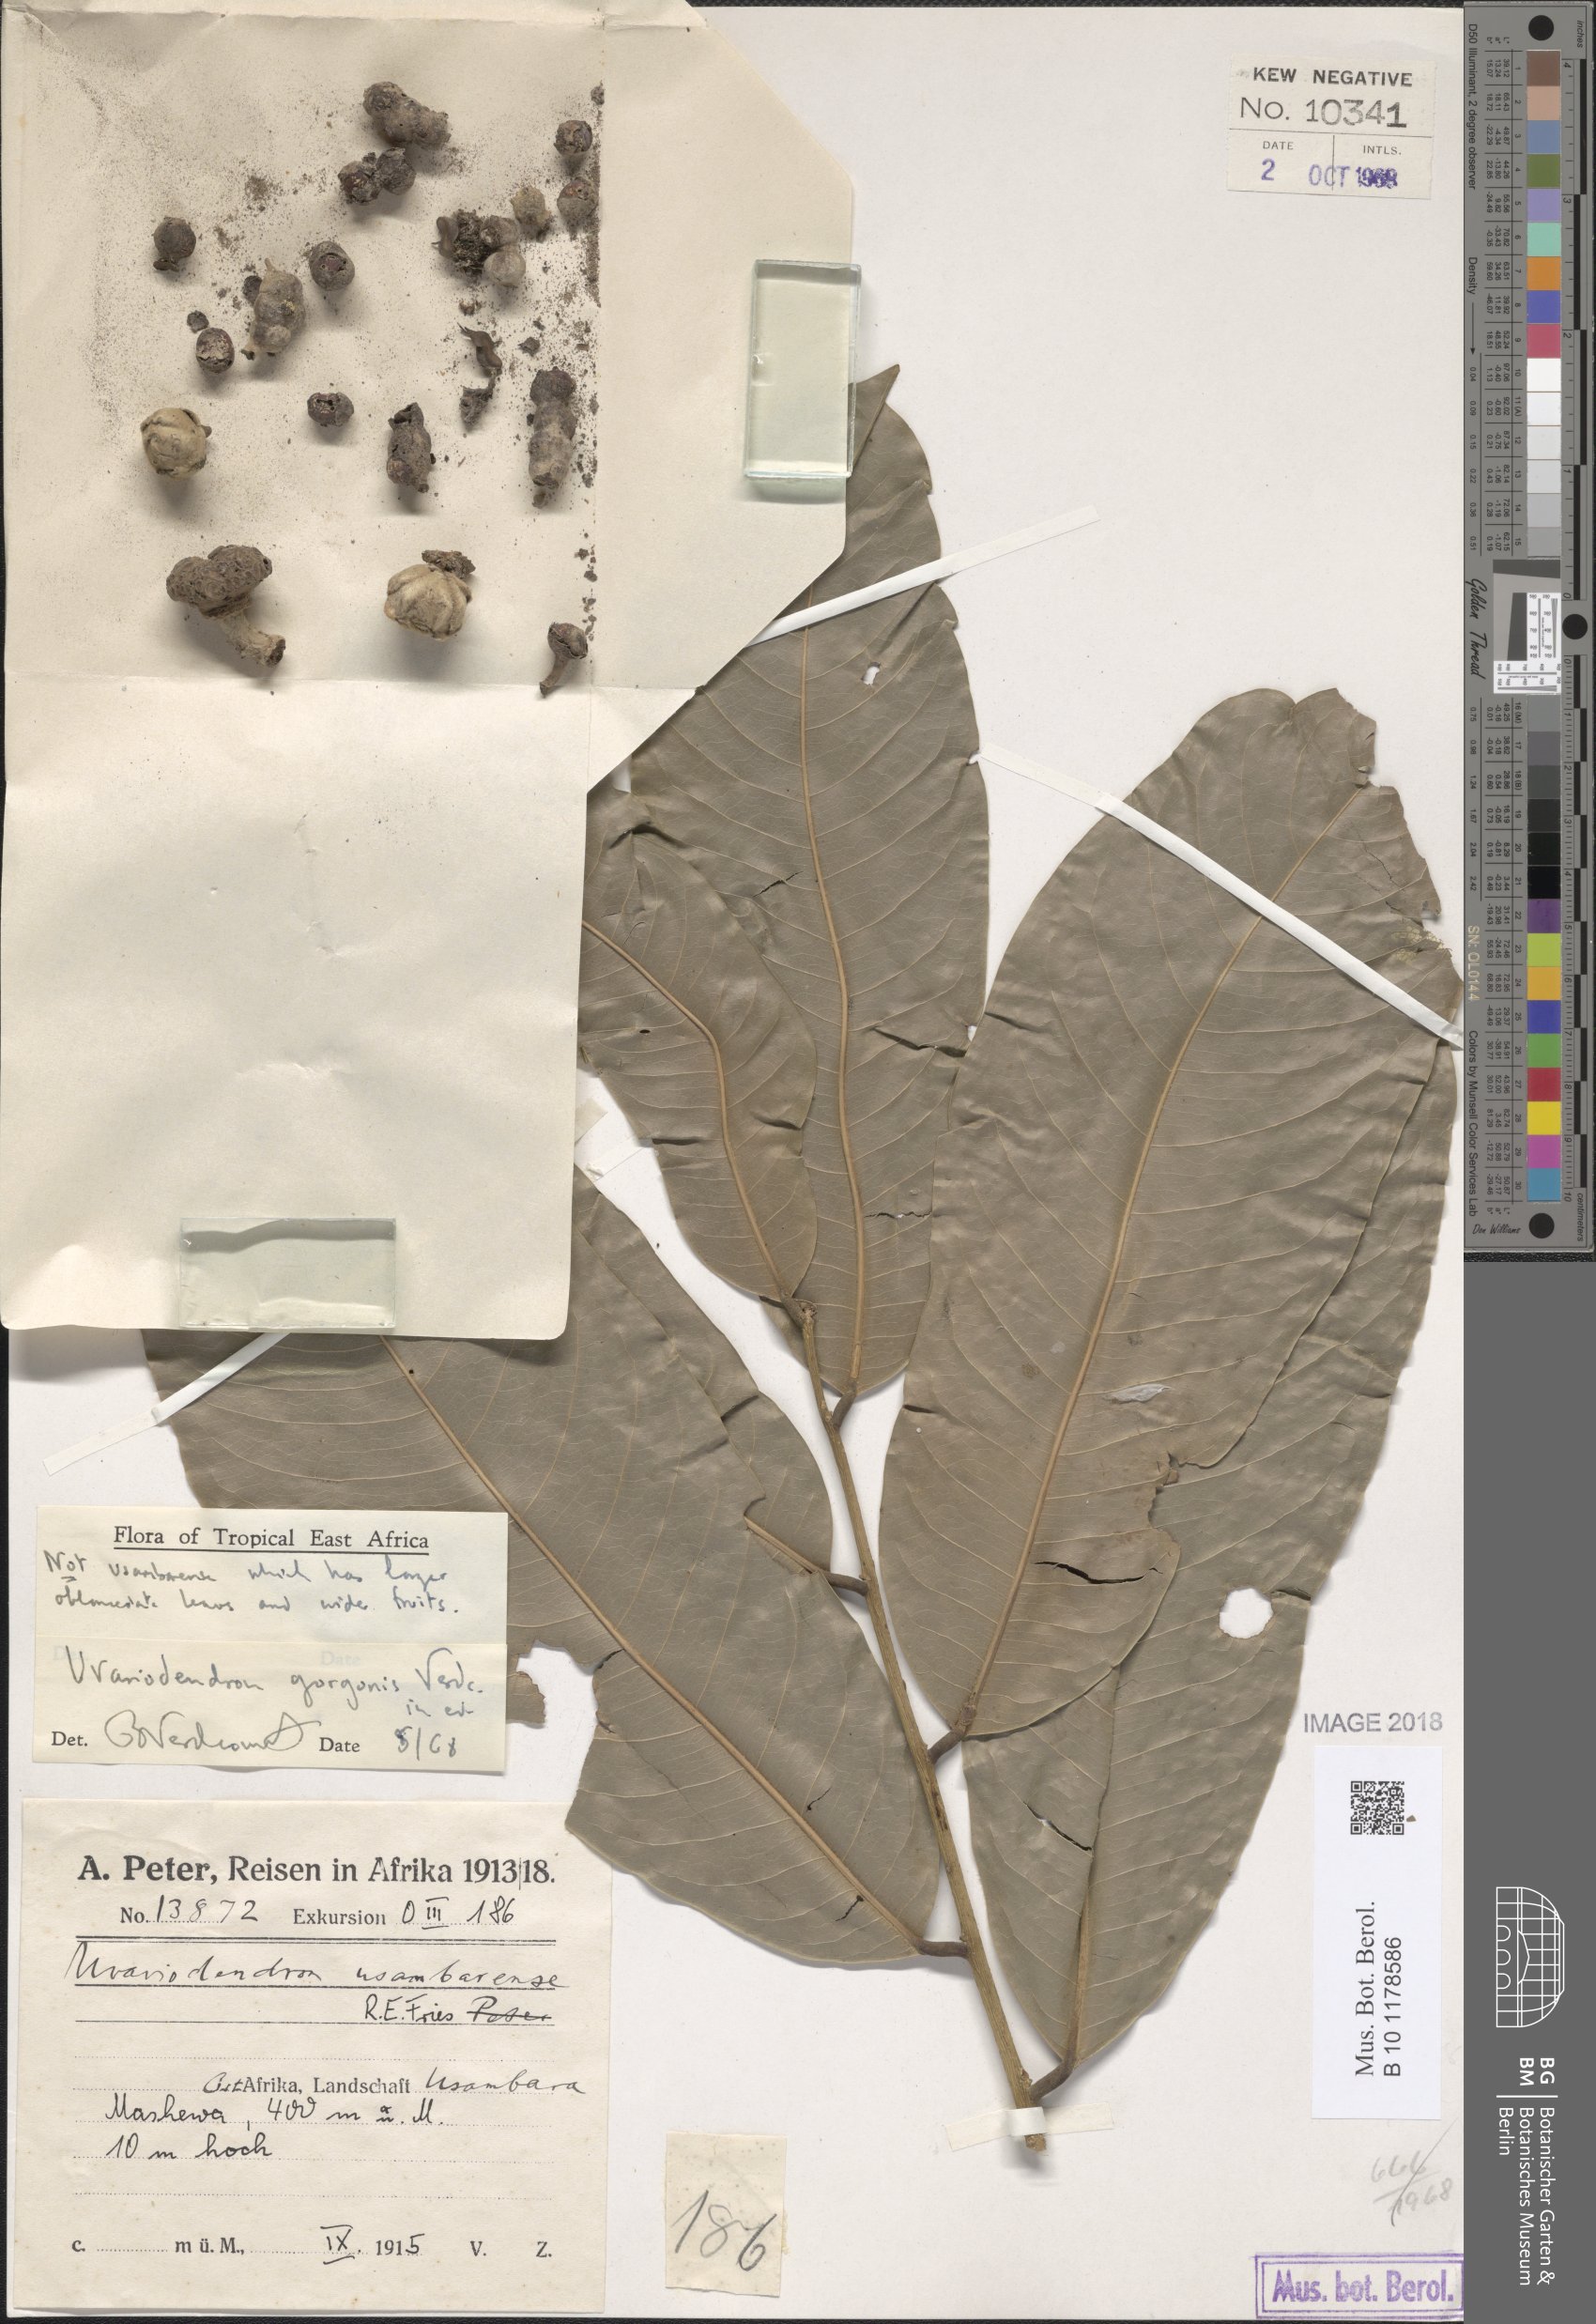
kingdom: Plantae
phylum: Tracheophyta
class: Magnoliopsida
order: Magnoliales
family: Annonaceae
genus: Uvariodendron
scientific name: Uvariodendron gorgonis
